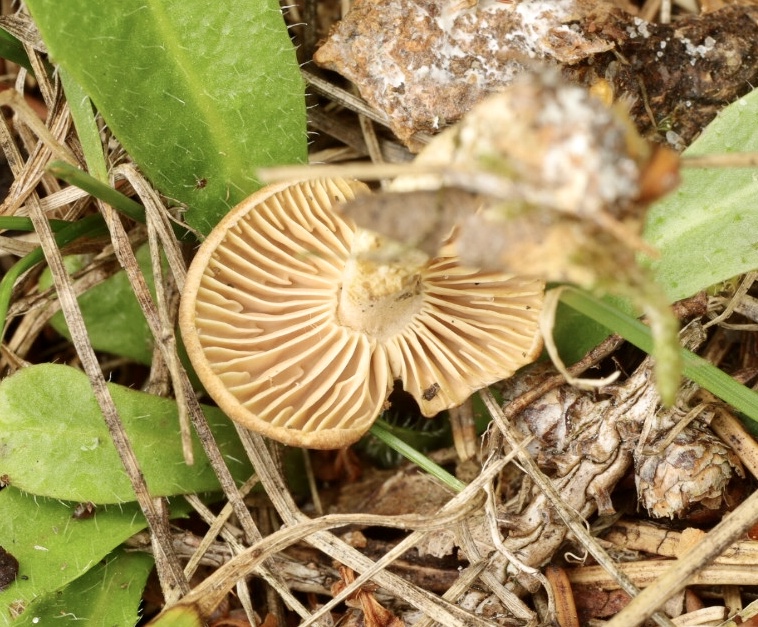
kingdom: Fungi
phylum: Basidiomycota
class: Agaricomycetes
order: Agaricales
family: Omphalotaceae
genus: Collybiopsis
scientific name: Collybiopsis peronata
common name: bestøvlet fladhat
